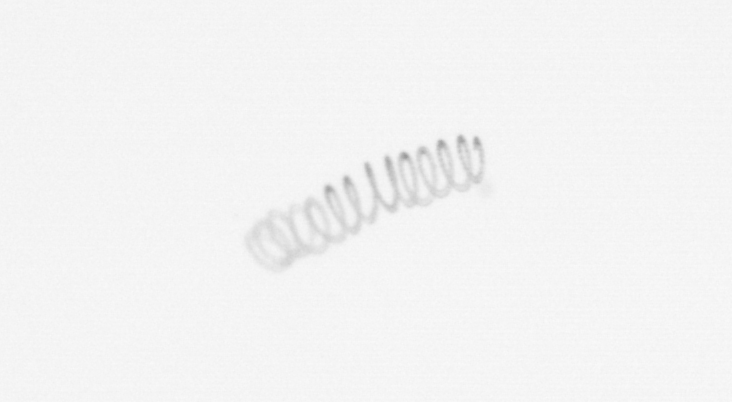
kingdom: Chromista
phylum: Ochrophyta
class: Bacillariophyceae
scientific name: Bacillariophyceae
